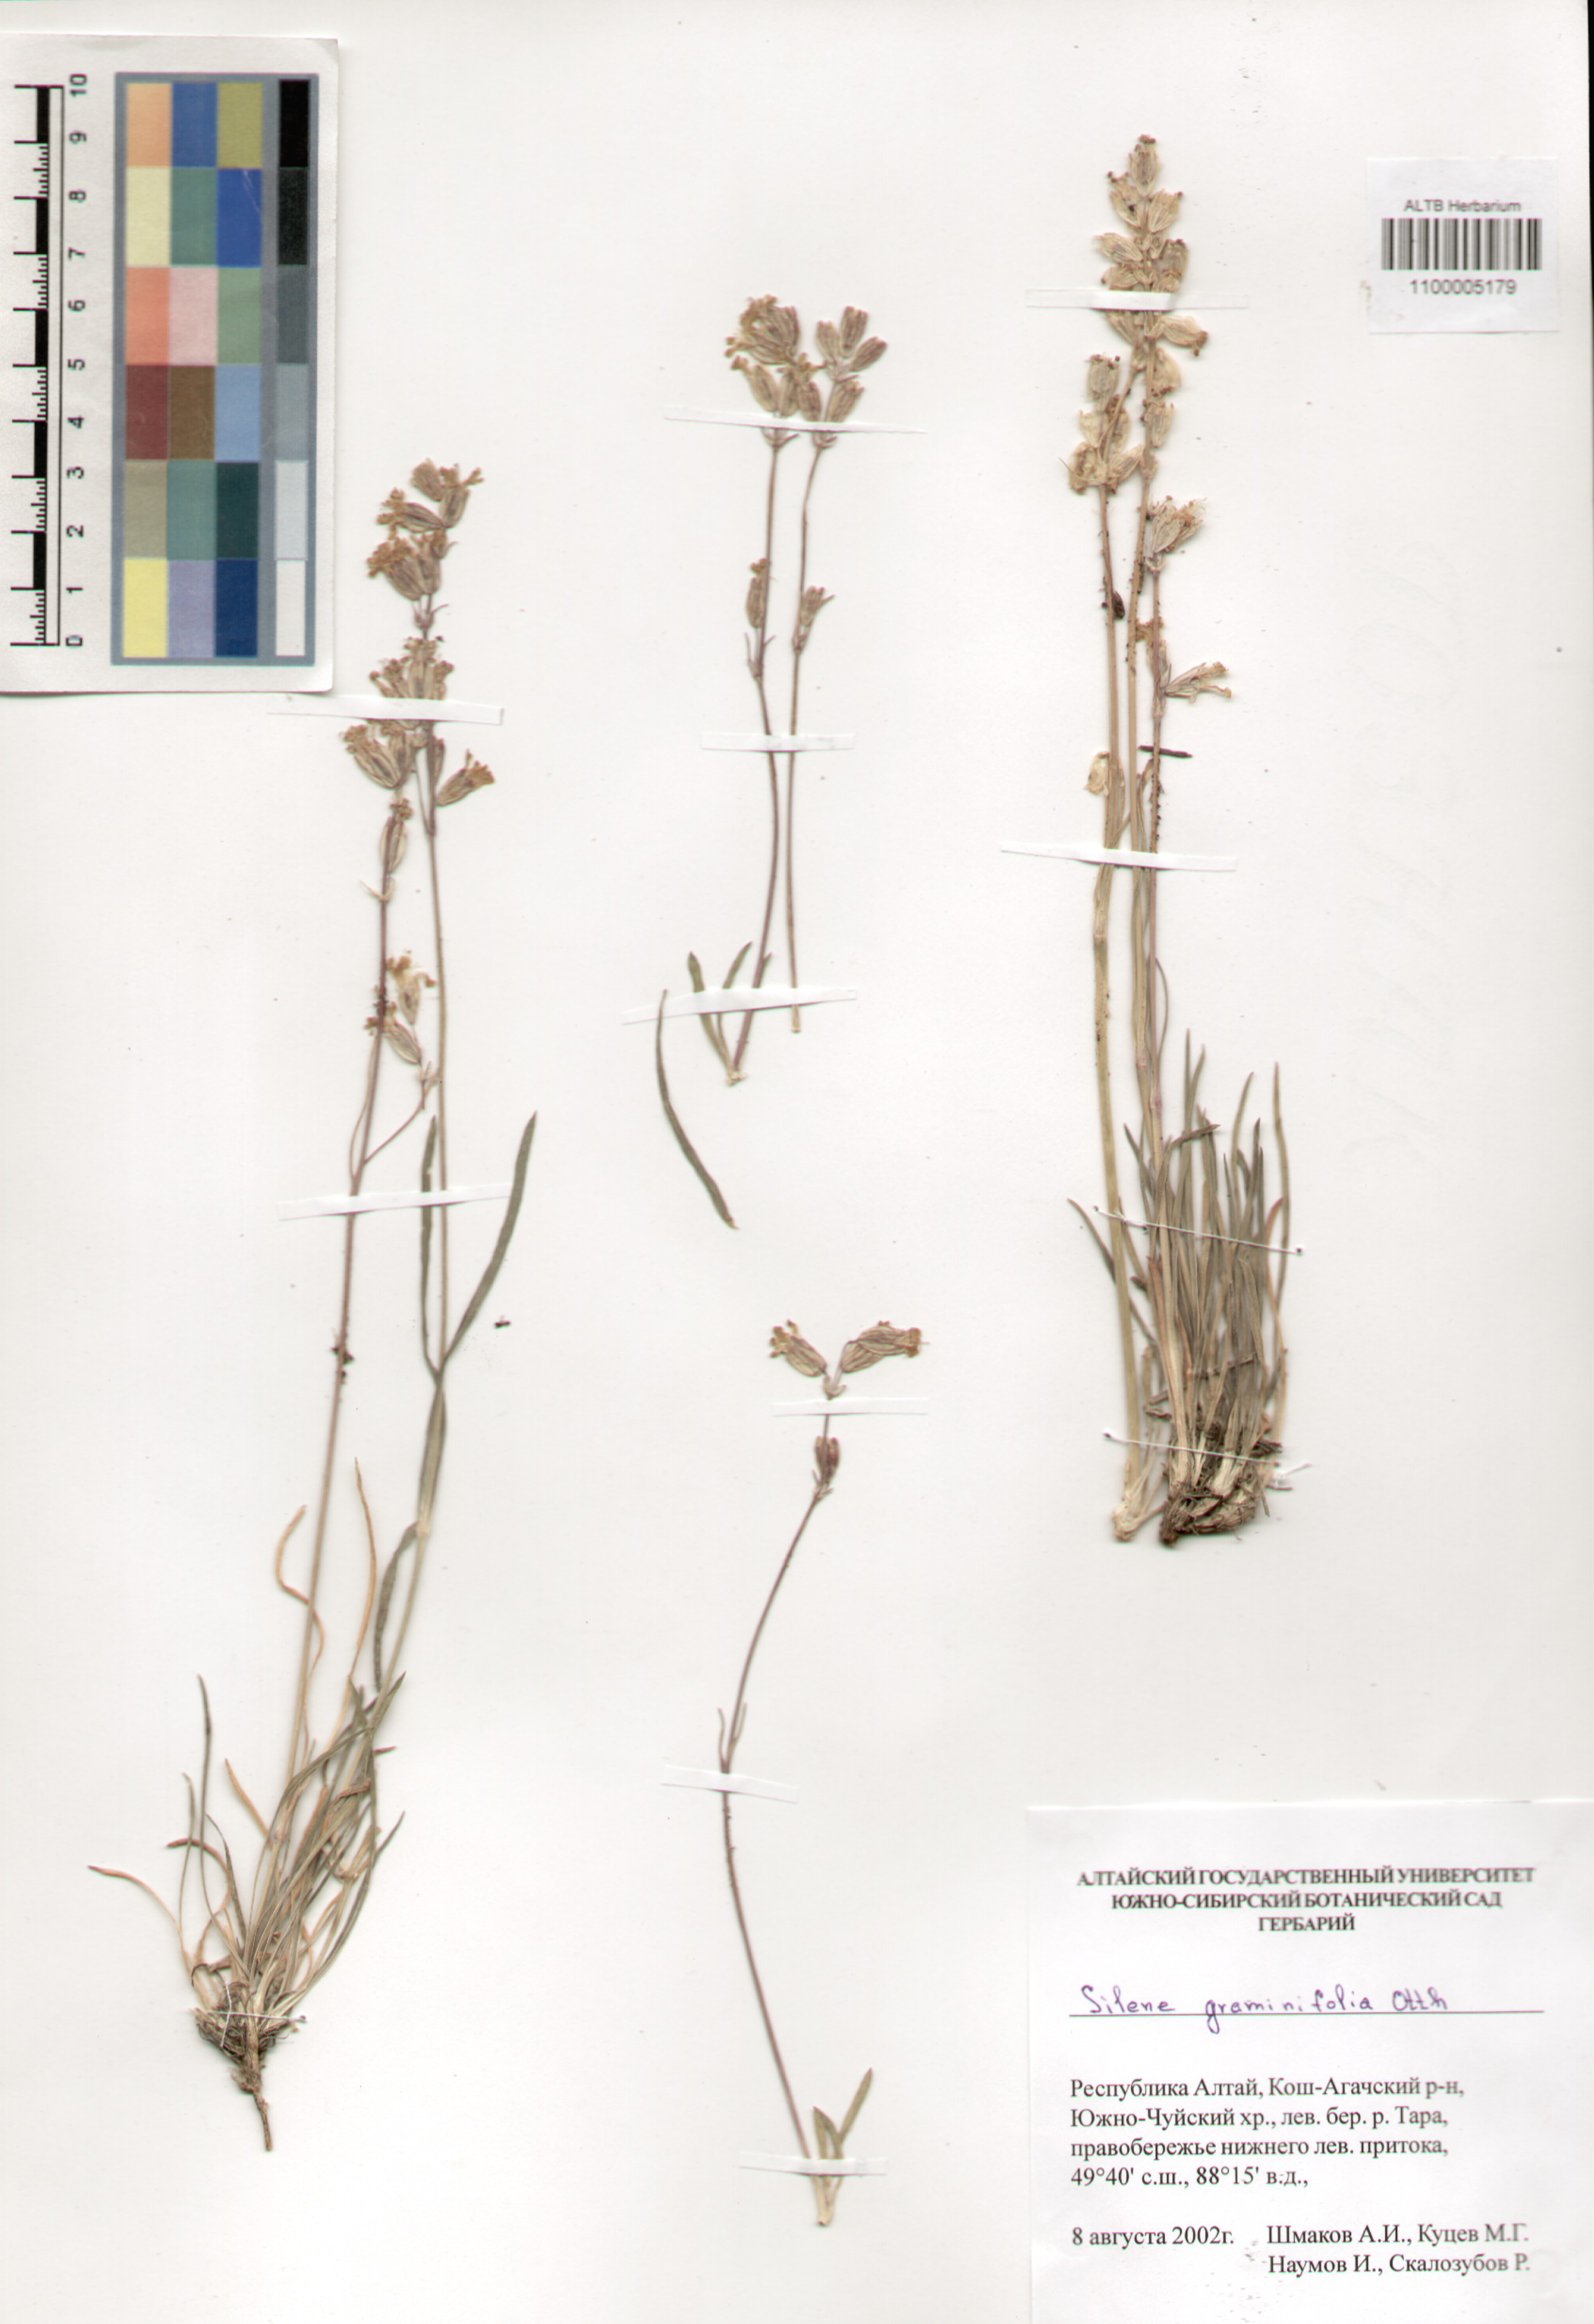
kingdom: Plantae
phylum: Tracheophyta
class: Magnoliopsida
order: Caryophyllales
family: Caryophyllaceae
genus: Silene
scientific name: Silene graminifolia
